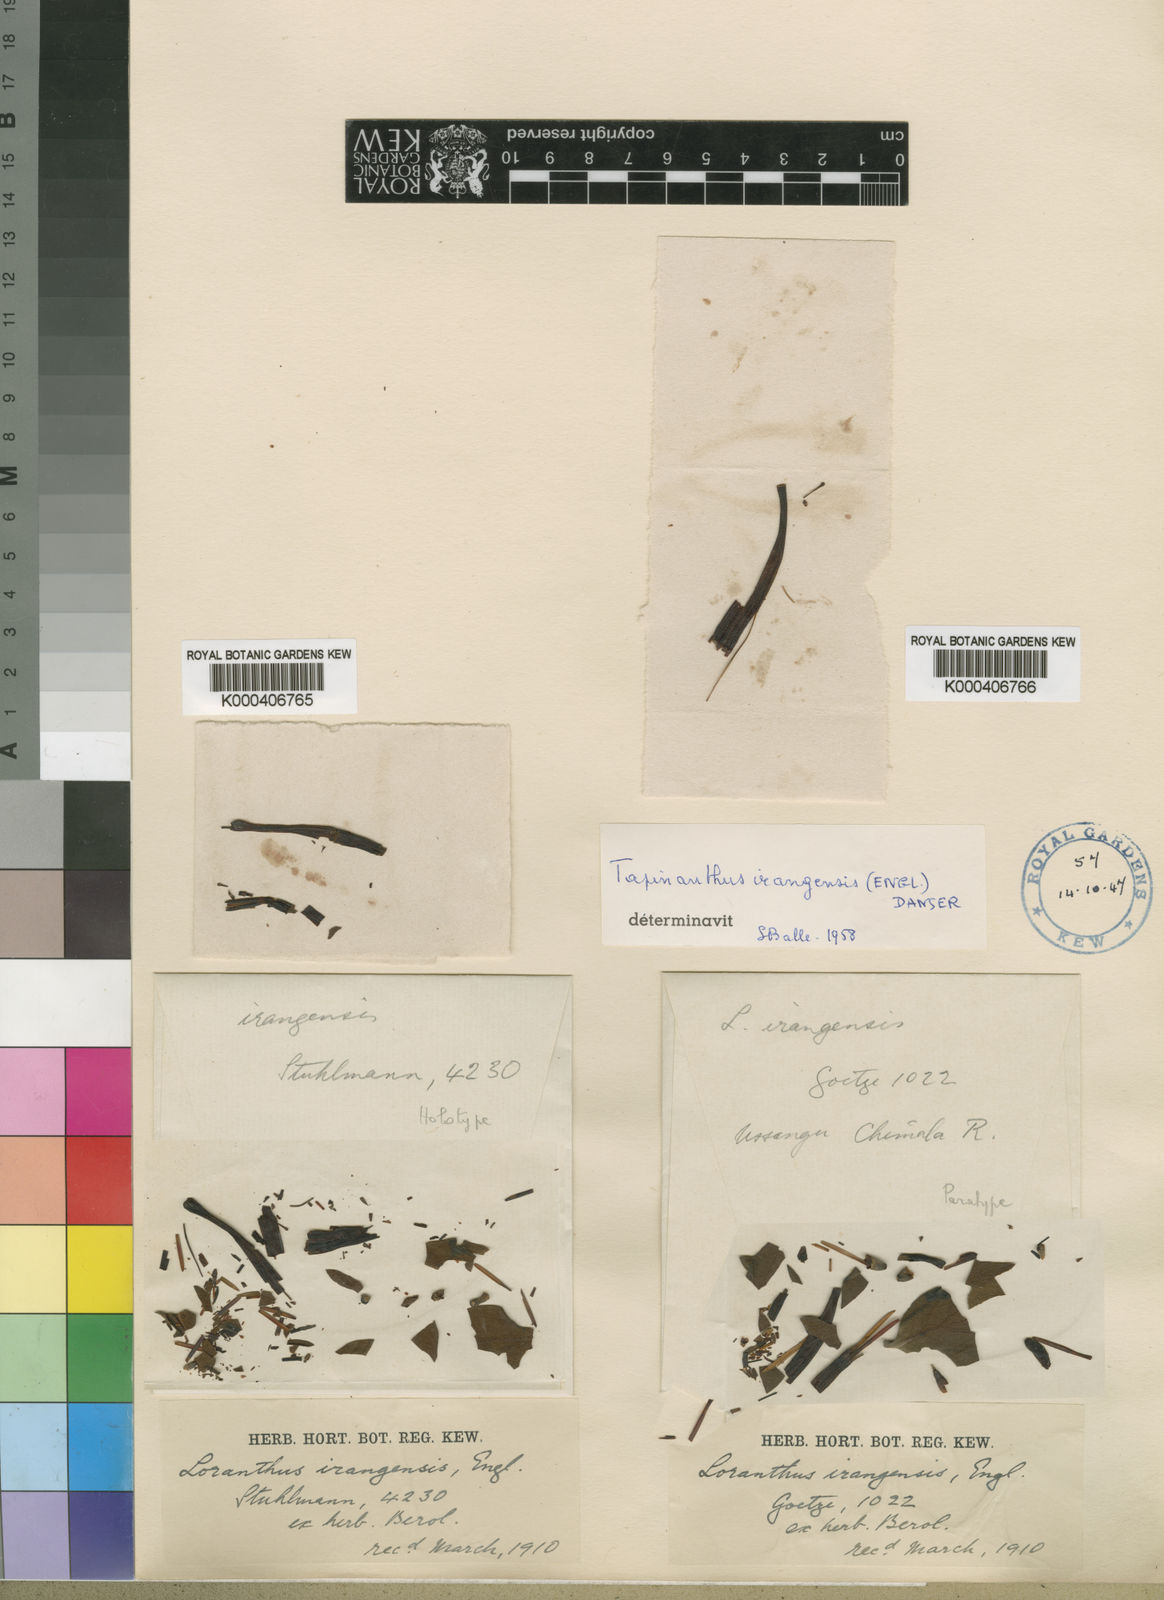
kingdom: Plantae
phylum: Tracheophyta
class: Magnoliopsida
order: Santalales
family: Loranthaceae
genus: Agelanthus
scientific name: Agelanthus irangensis
